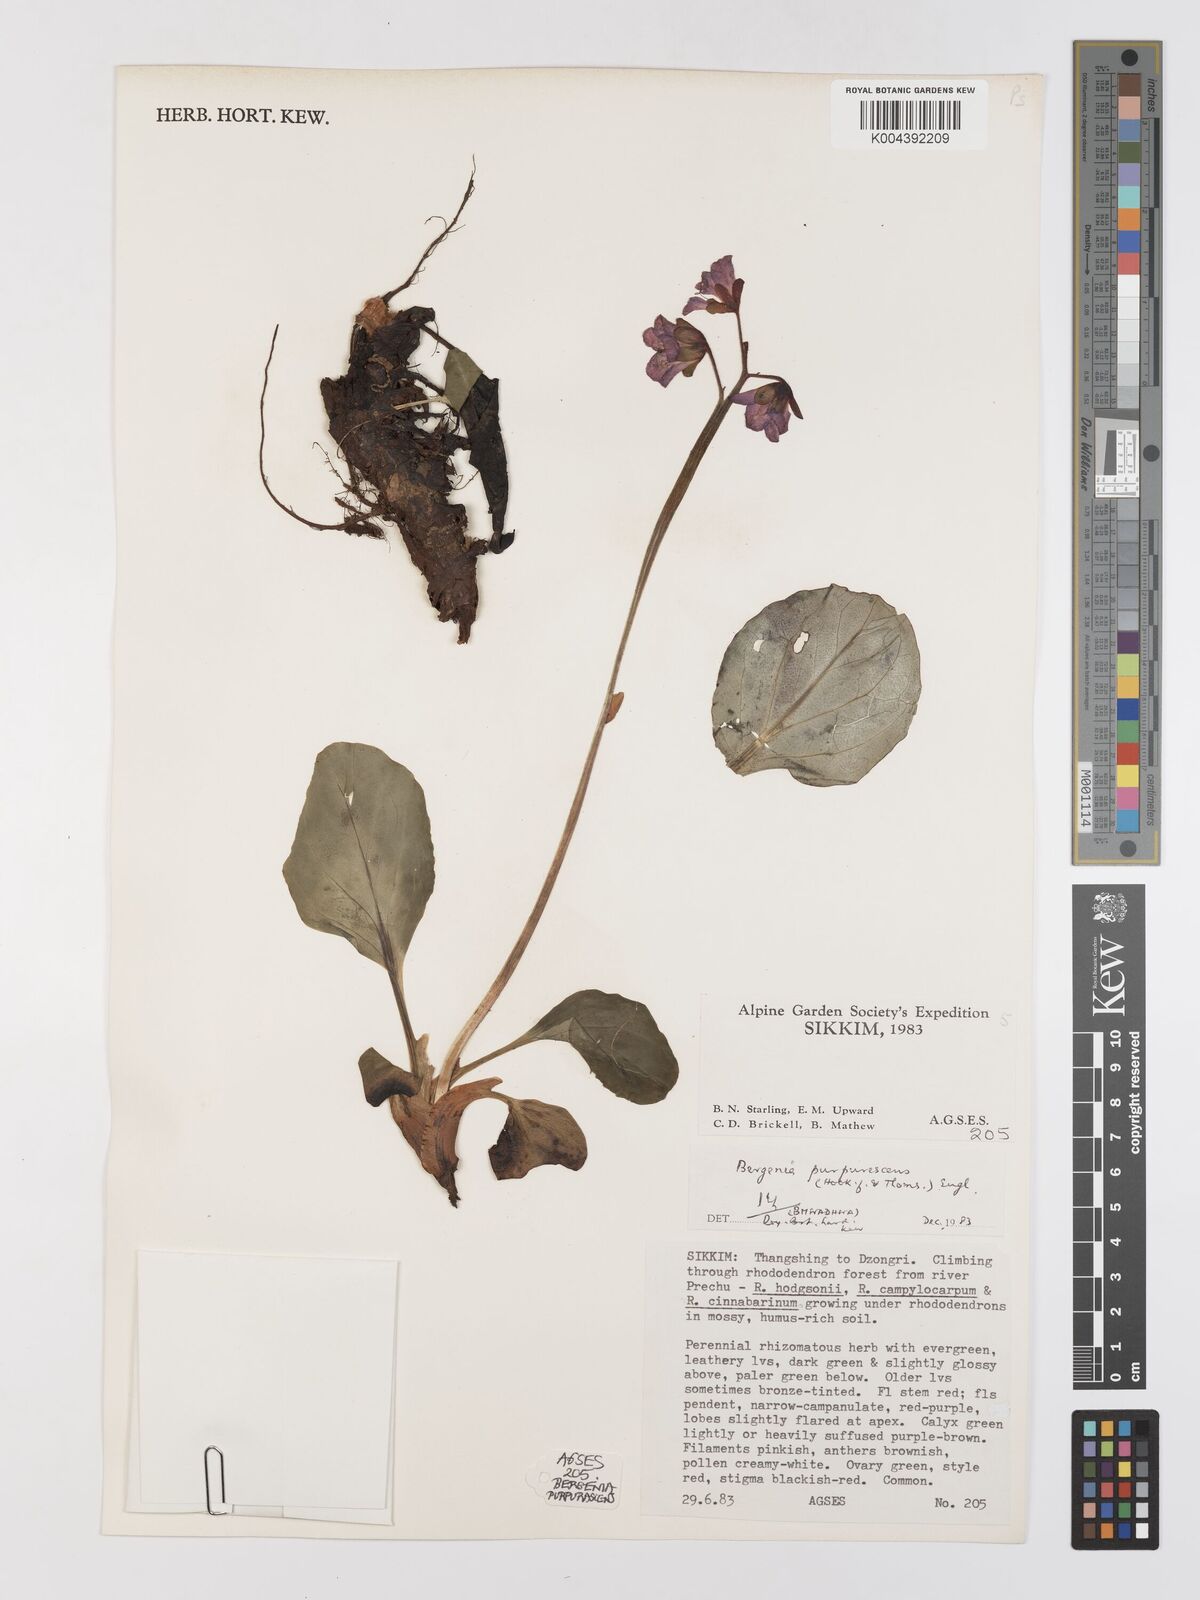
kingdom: Plantae
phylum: Tracheophyta
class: Magnoliopsida
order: Saxifragales
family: Saxifragaceae
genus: Bergenia
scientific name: Bergenia purpurascens
